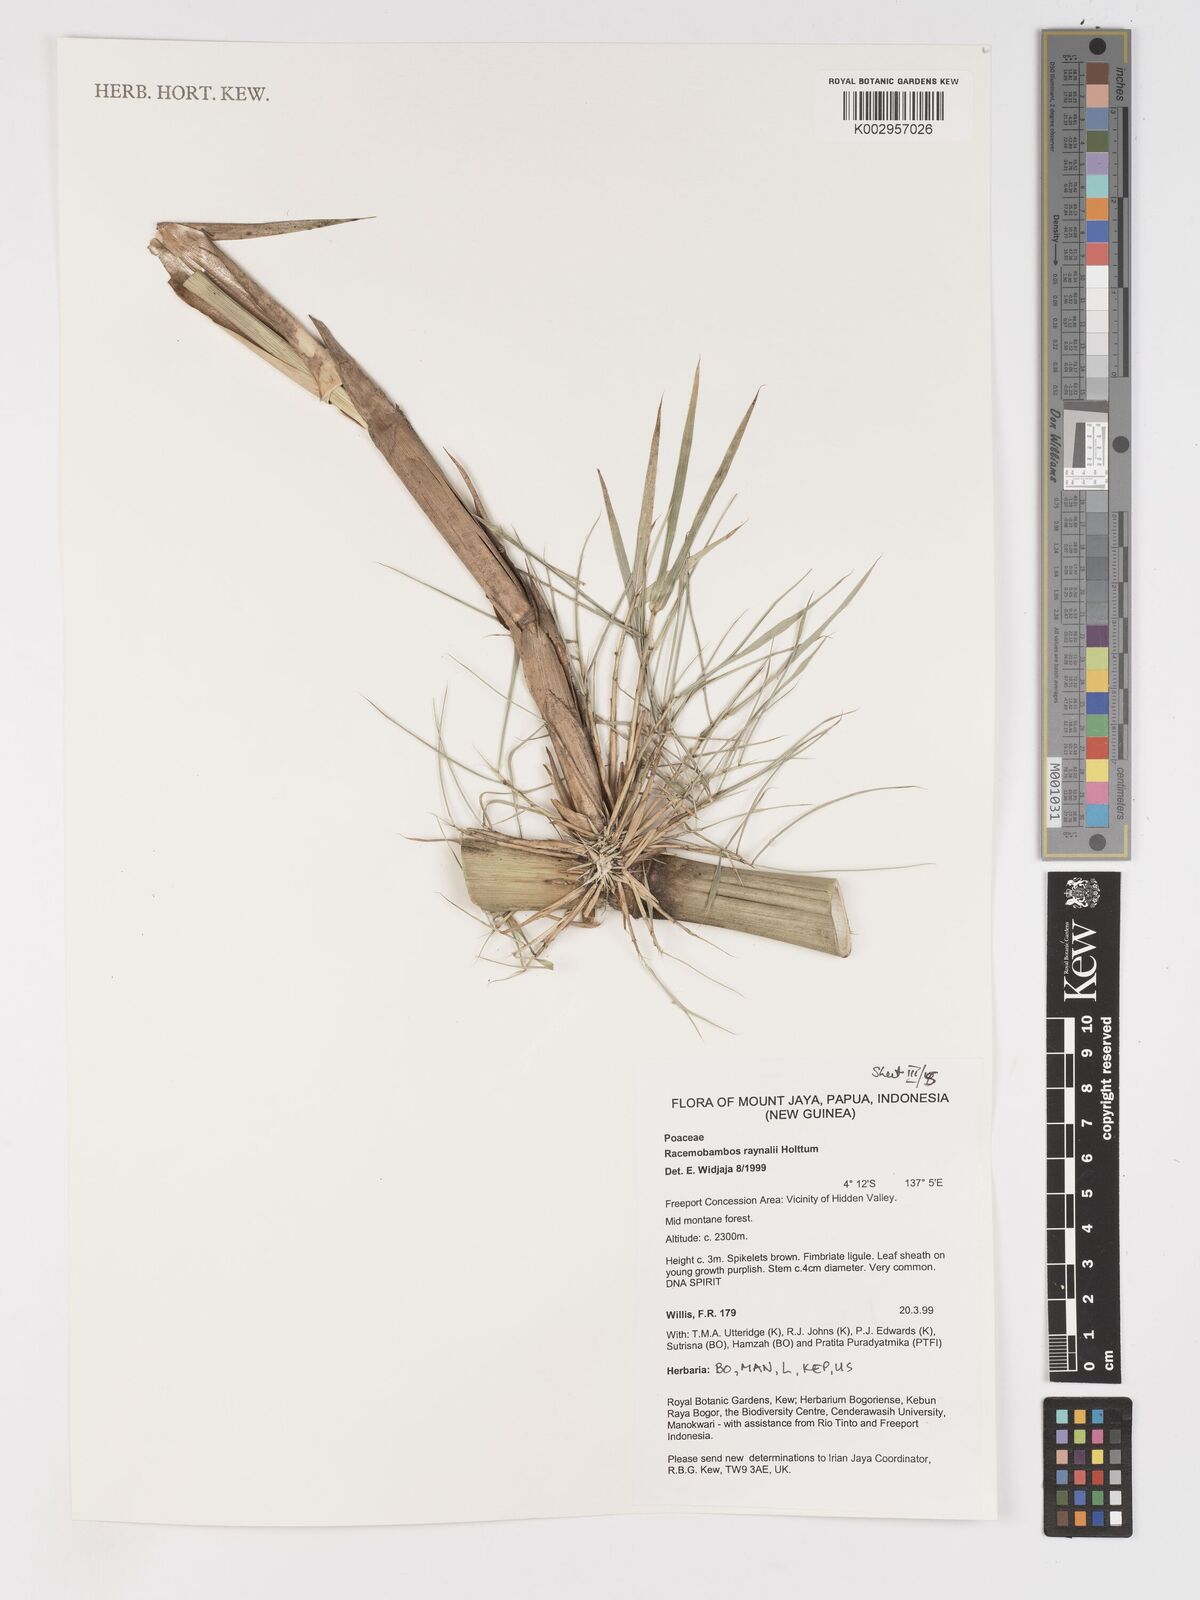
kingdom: Plantae
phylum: Tracheophyta
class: Liliopsida
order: Poales
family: Poaceae
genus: Racemobambos
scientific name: Racemobambos raynalii
